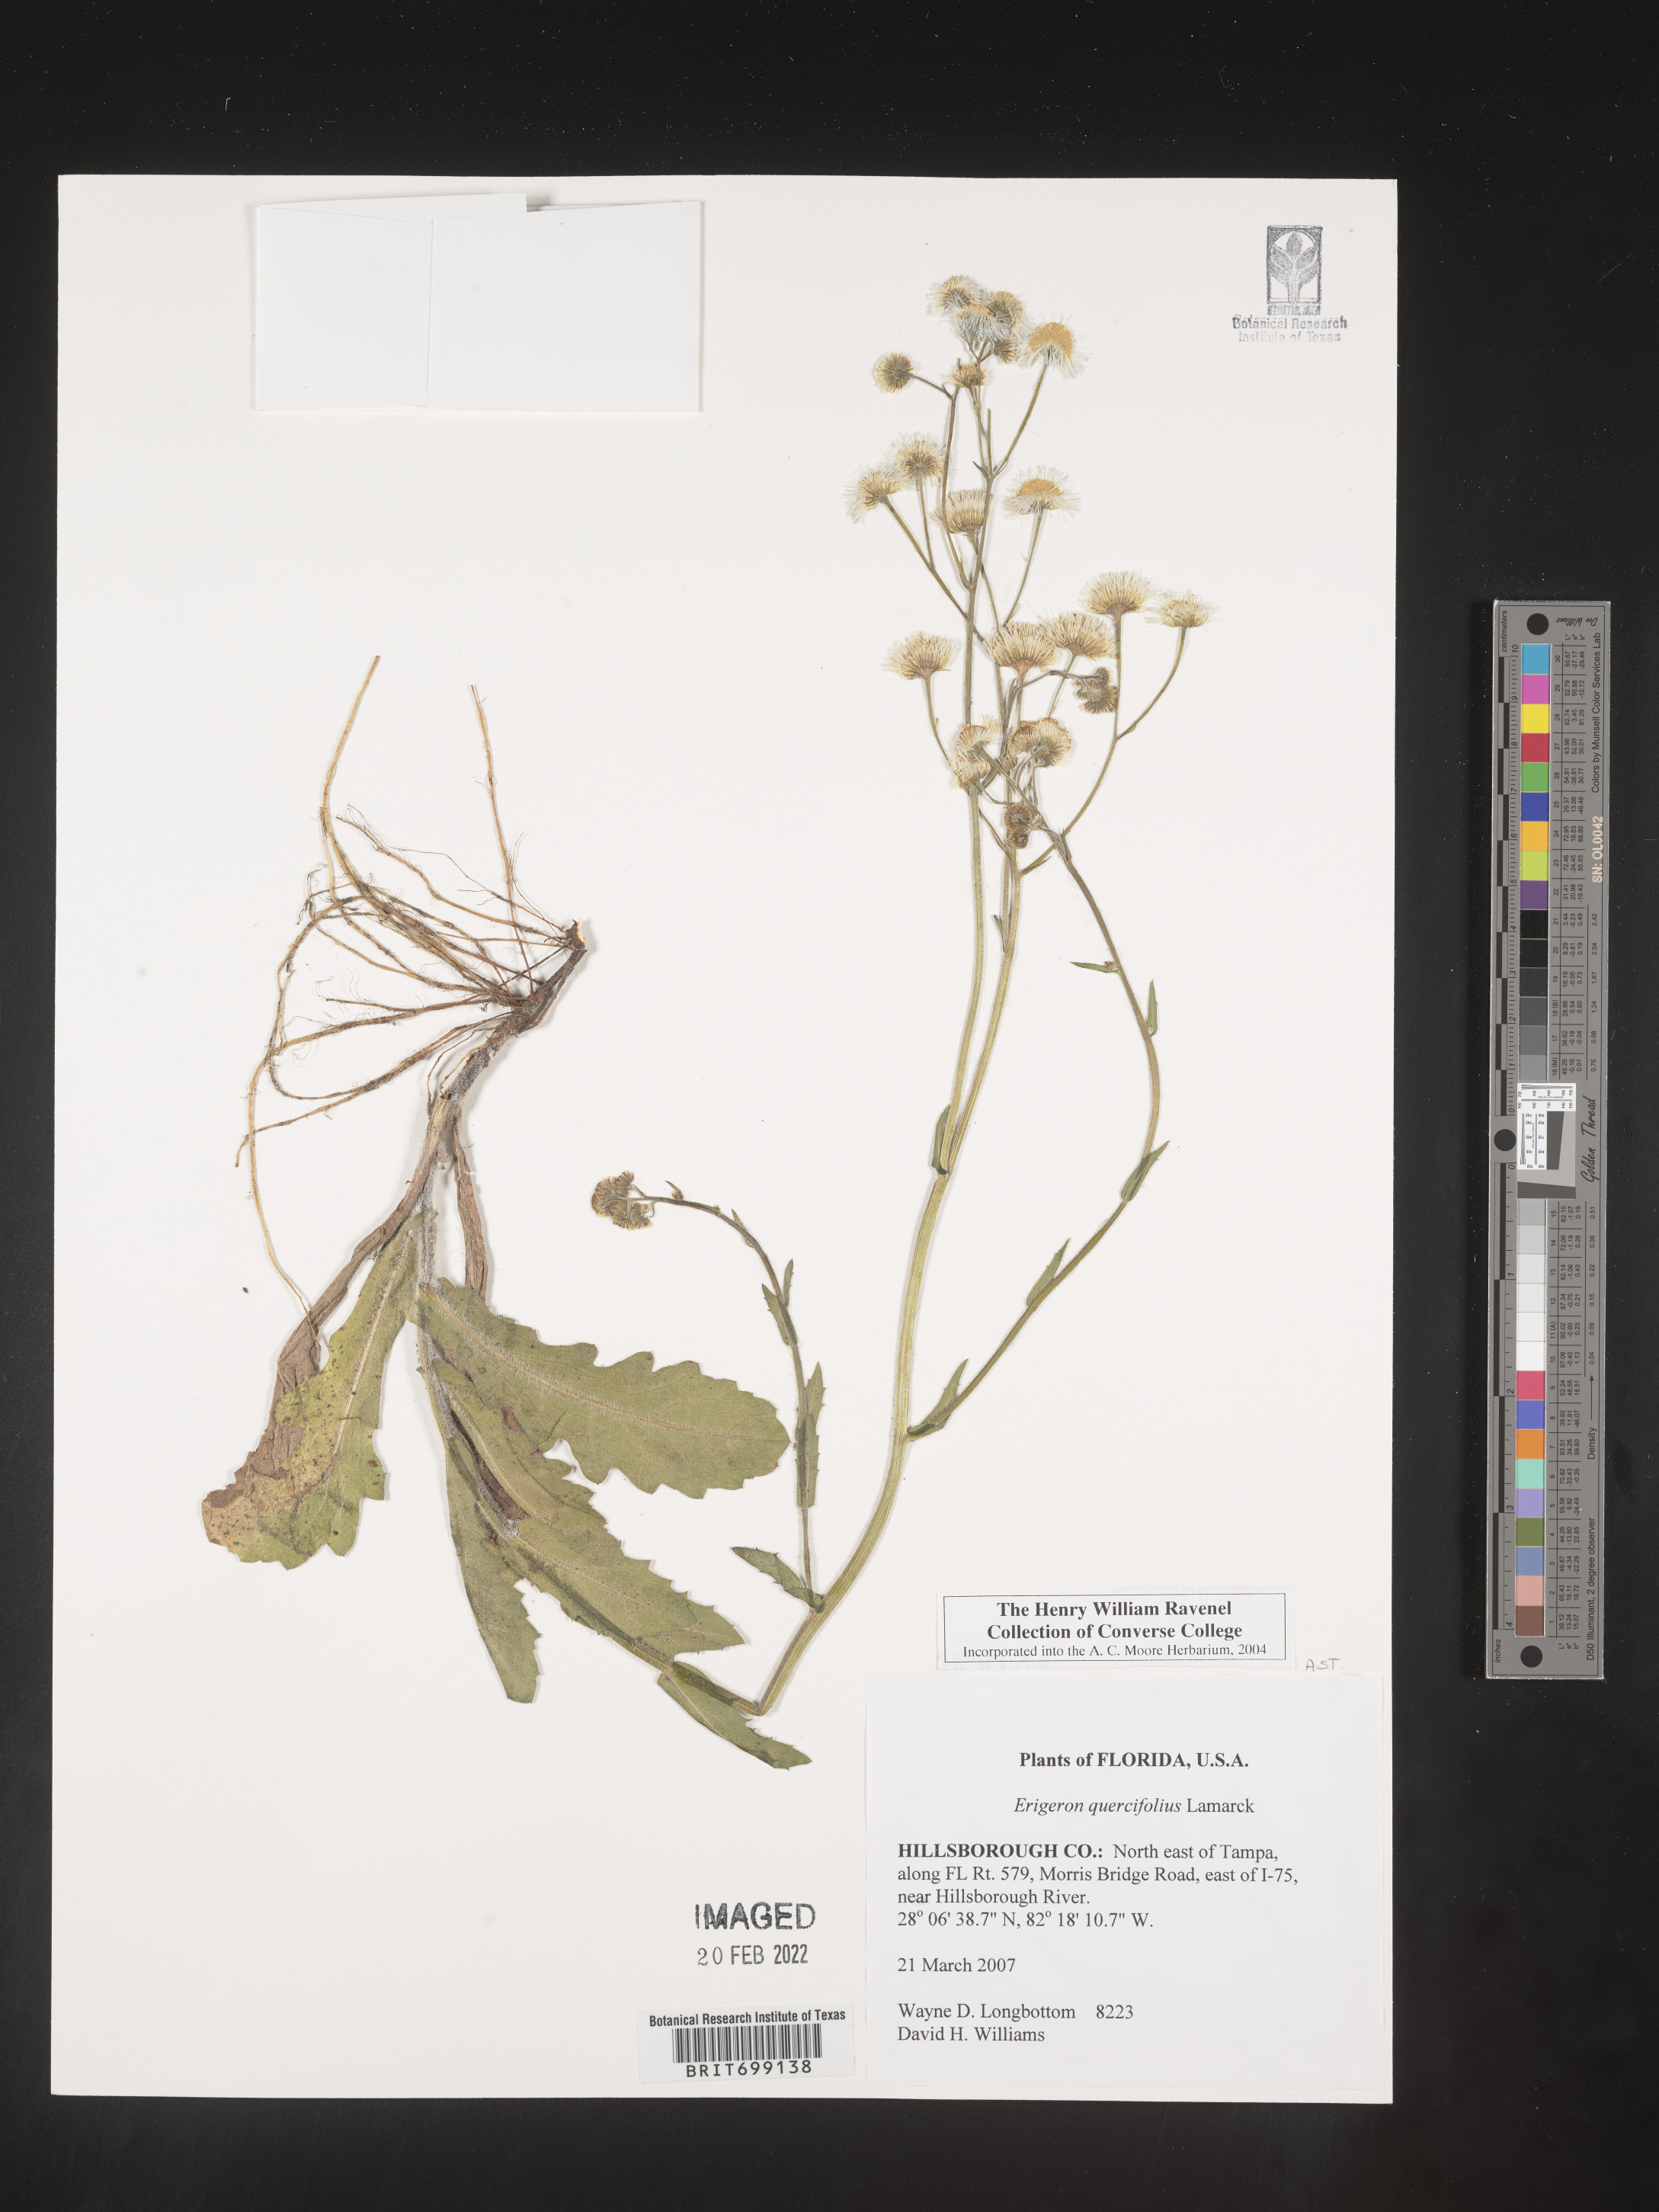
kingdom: Plantae
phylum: Tracheophyta
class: Magnoliopsida
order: Asterales
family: Asteraceae
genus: Erigeron
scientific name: Erigeron quercifolius
